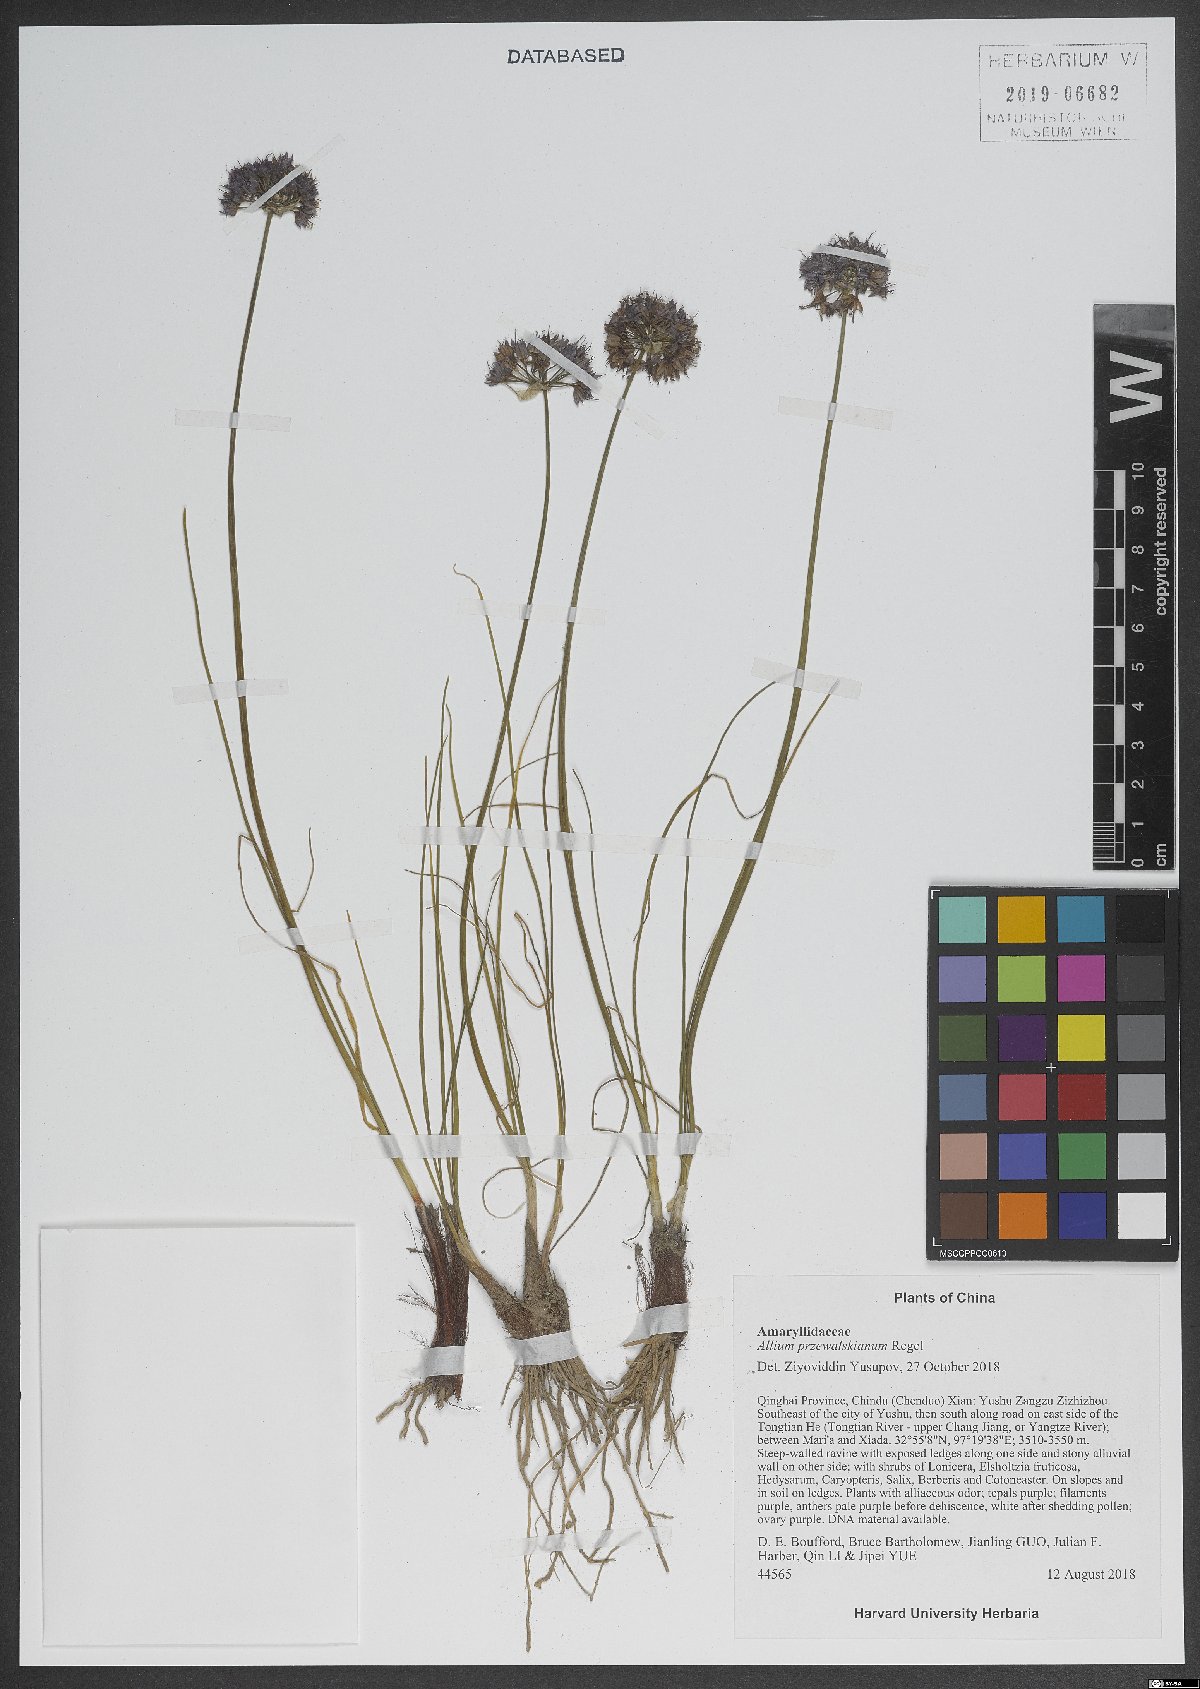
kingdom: Plantae
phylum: Tracheophyta
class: Liliopsida
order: Asparagales
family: Amaryllidaceae
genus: Allium
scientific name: Allium przewalskianum
